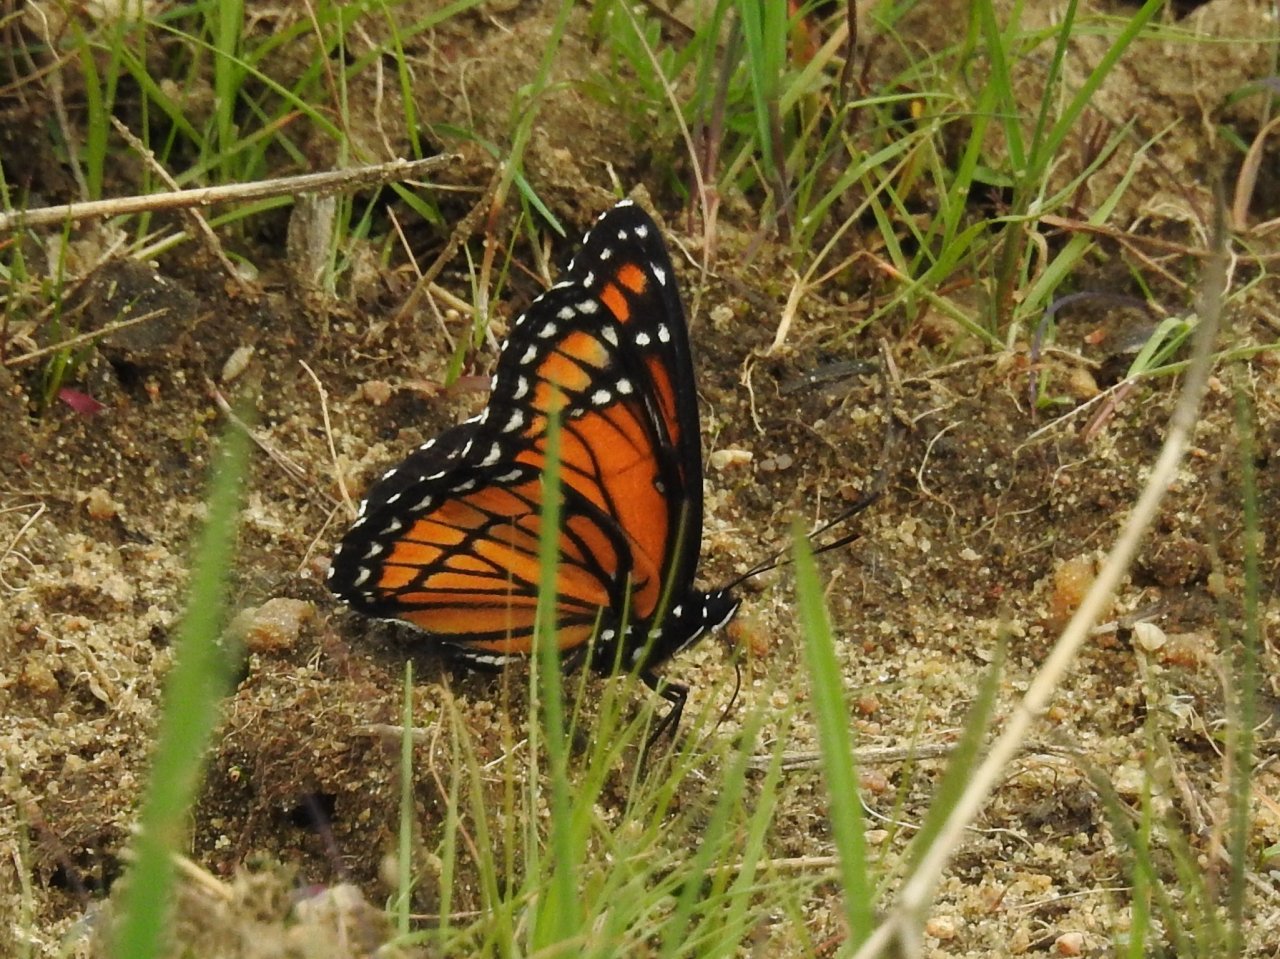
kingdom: Animalia
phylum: Arthropoda
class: Insecta
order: Lepidoptera
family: Nymphalidae
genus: Limenitis
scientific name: Limenitis archippus
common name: Viceroy
